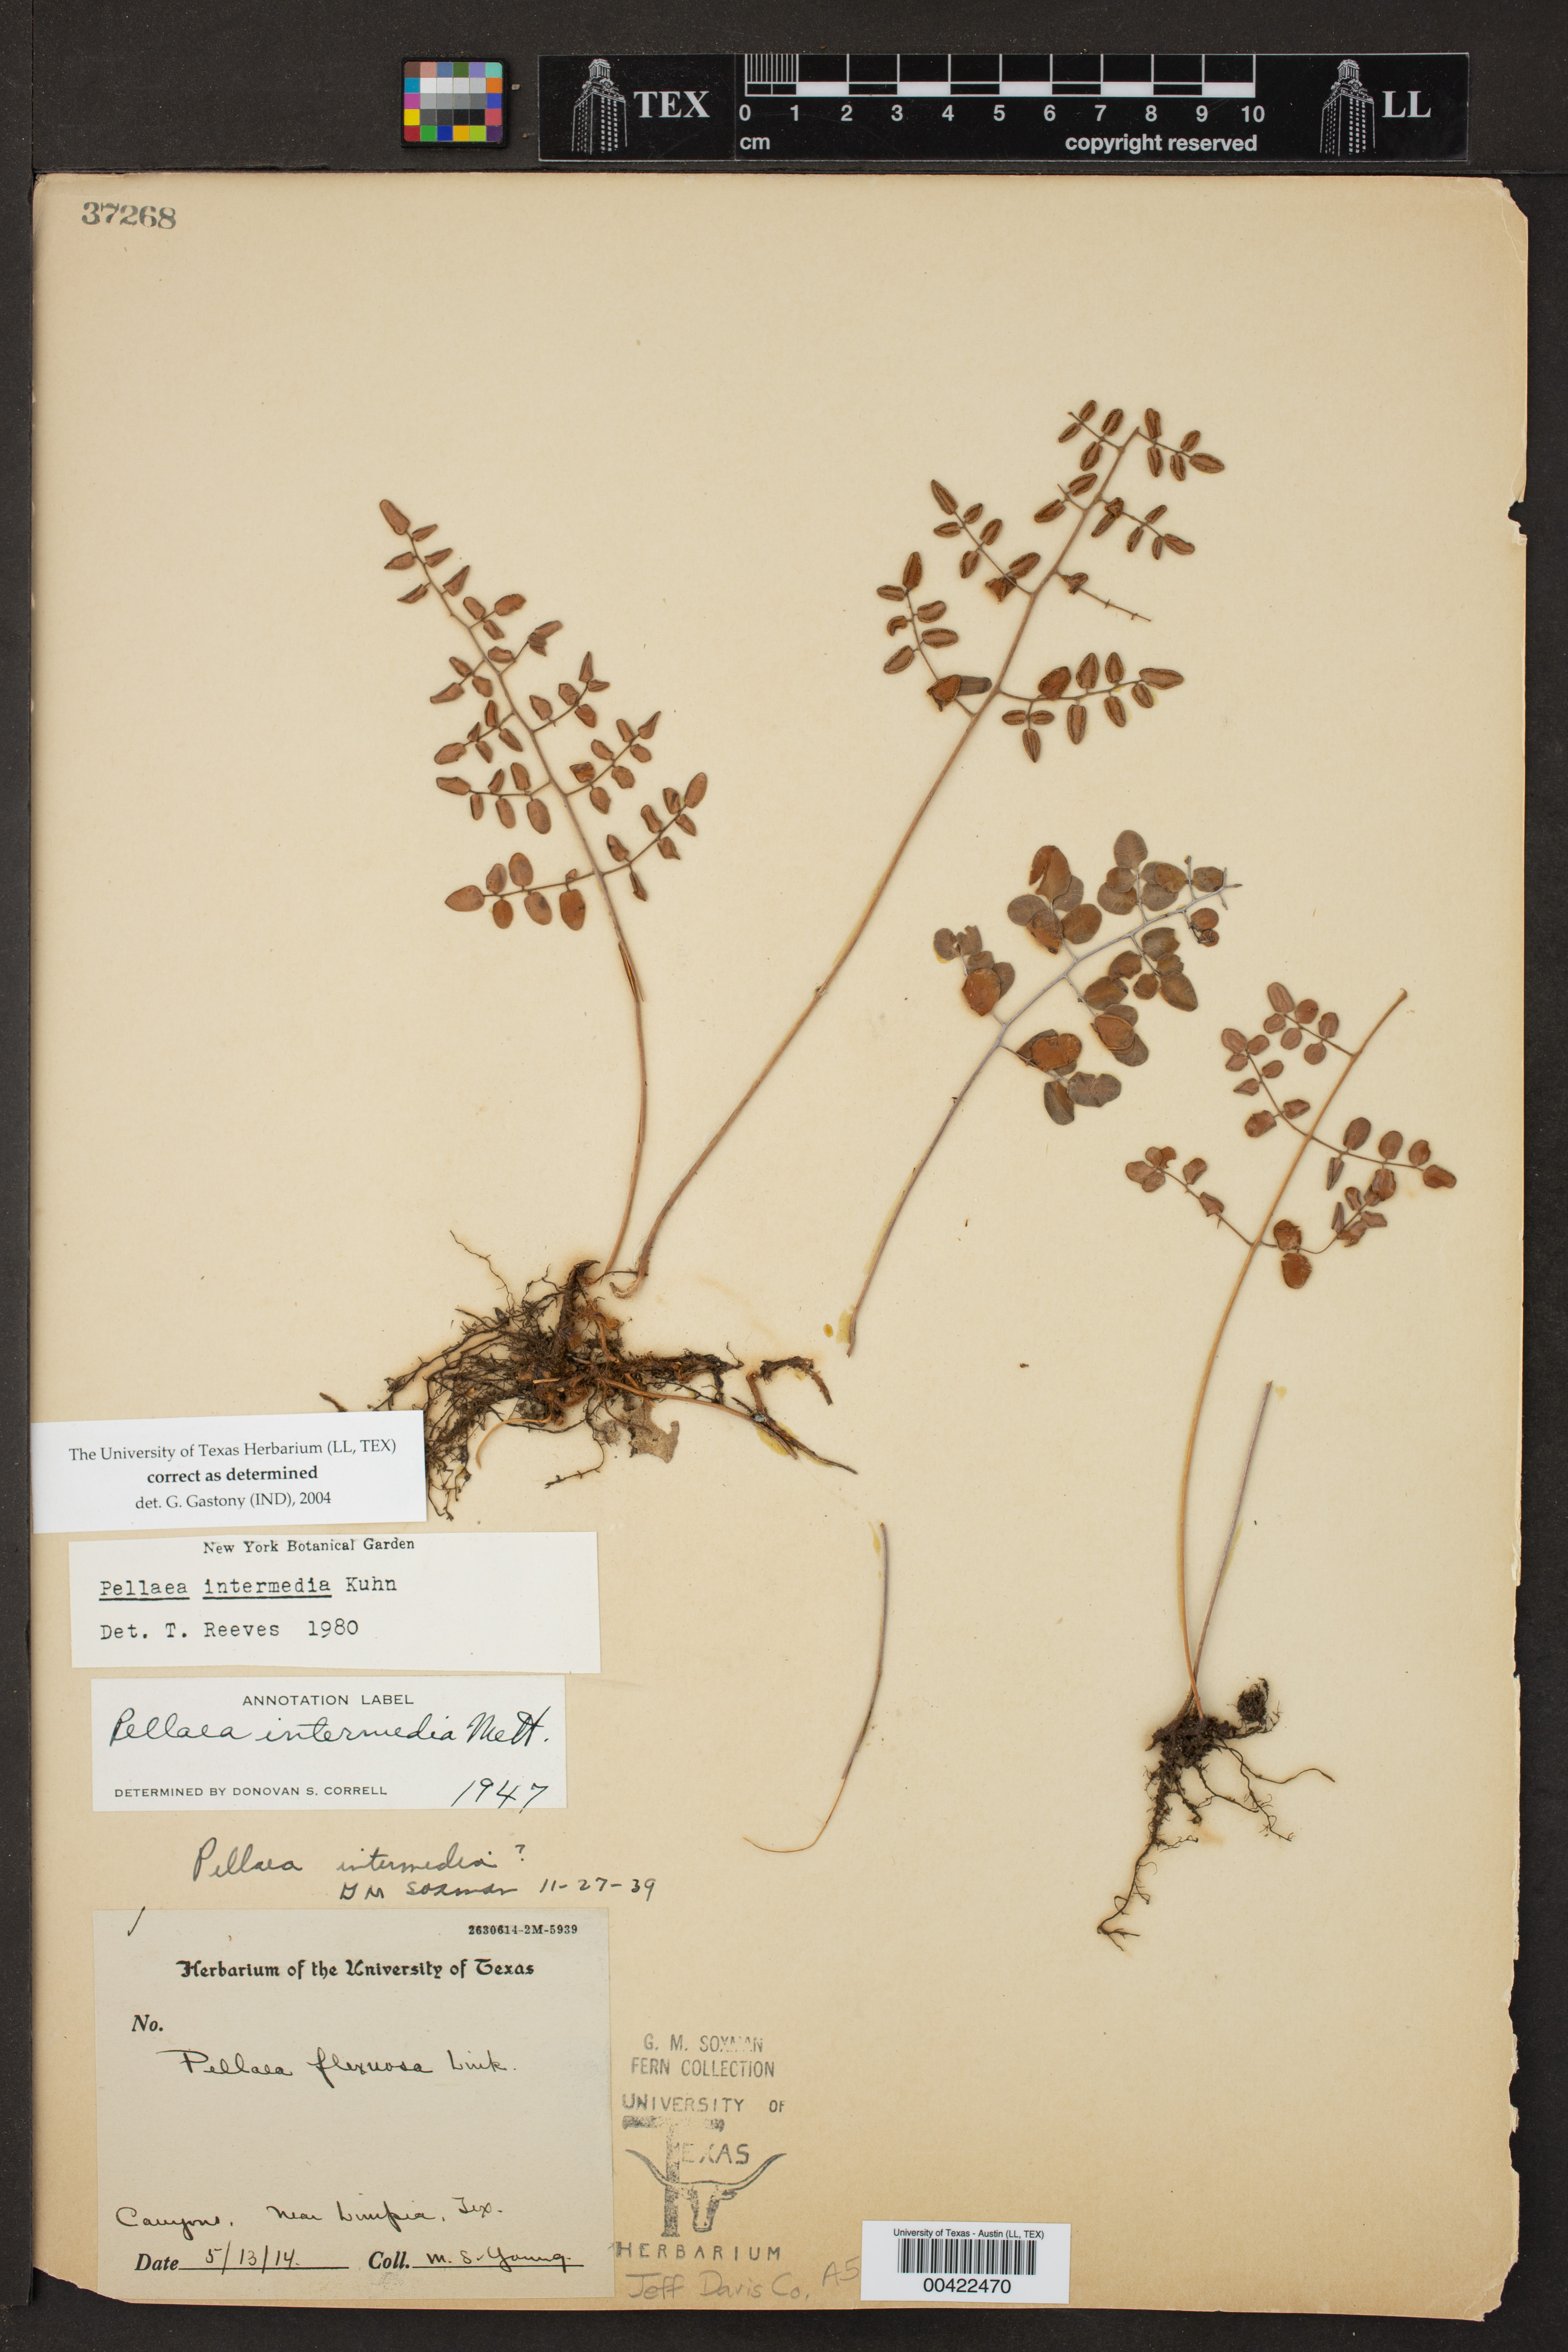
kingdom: Plantae
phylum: Tracheophyta
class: Polypodiopsida
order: Polypodiales
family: Pteridaceae
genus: Pellaea
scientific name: Pellaea intermedia
